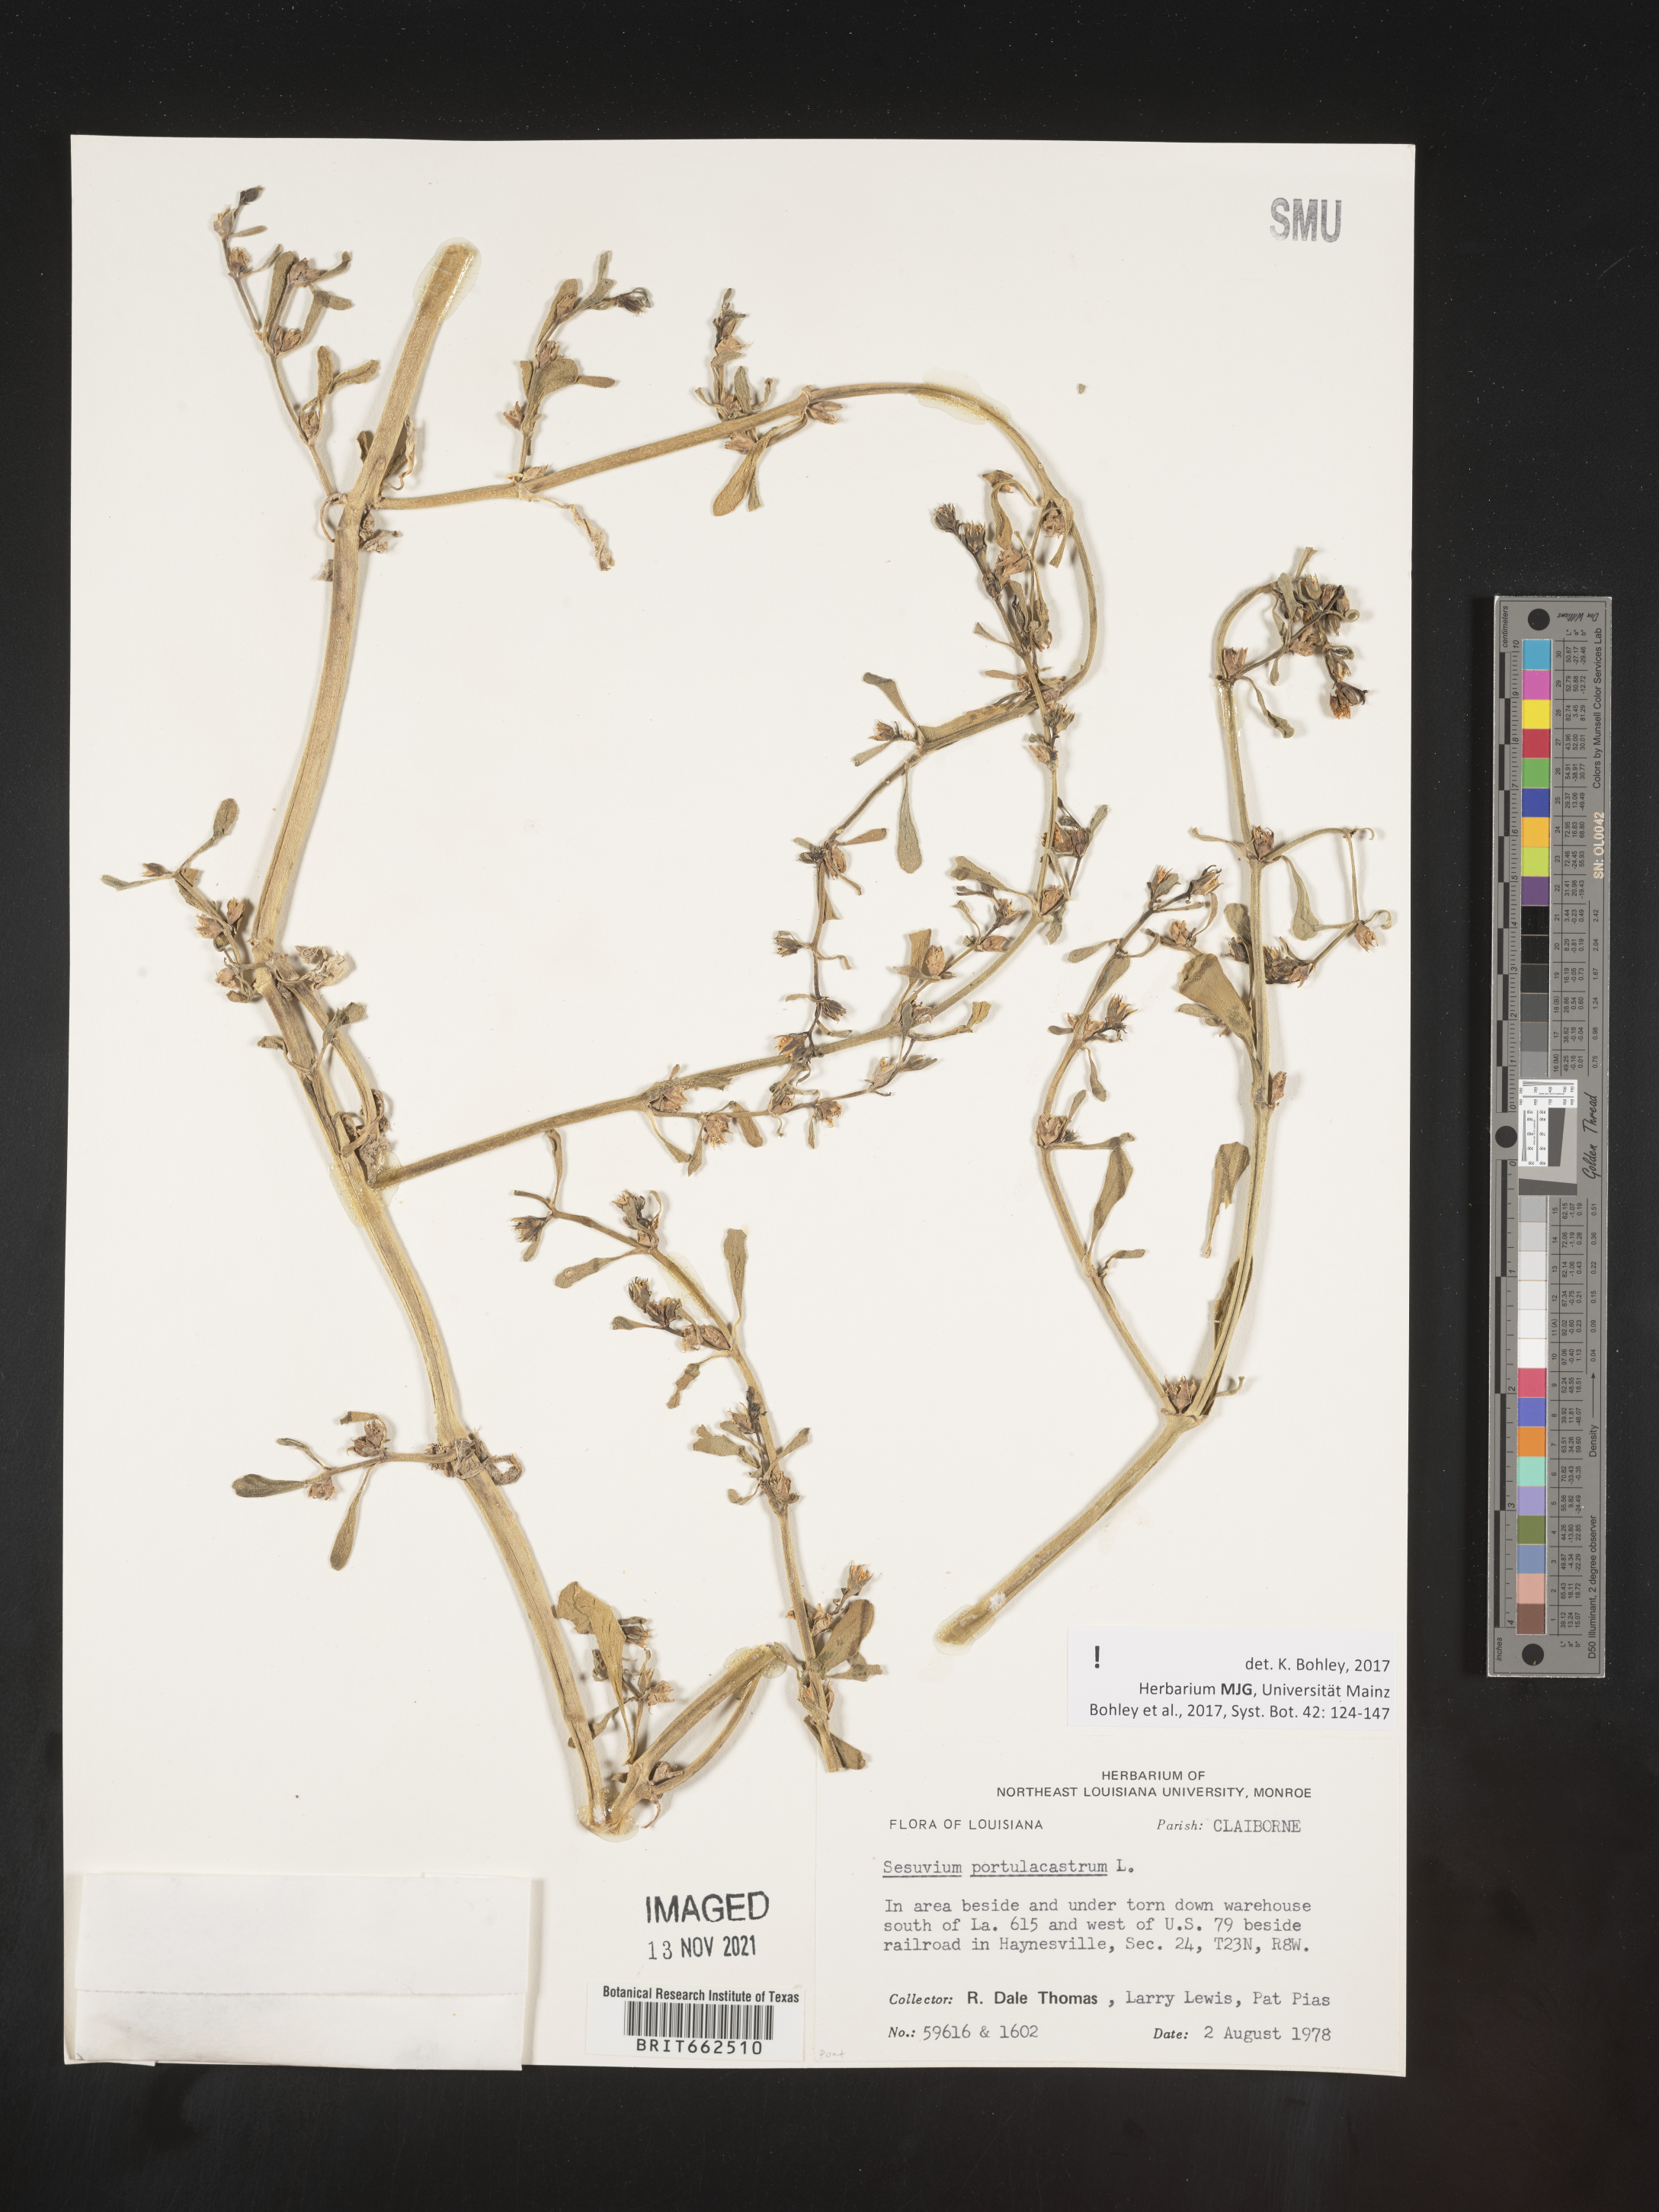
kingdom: Plantae
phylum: Tracheophyta
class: Magnoliopsida
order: Caryophyllales
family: Aizoaceae
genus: Sesuvium
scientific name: Sesuvium portulacastrum
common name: Sea-purslane
